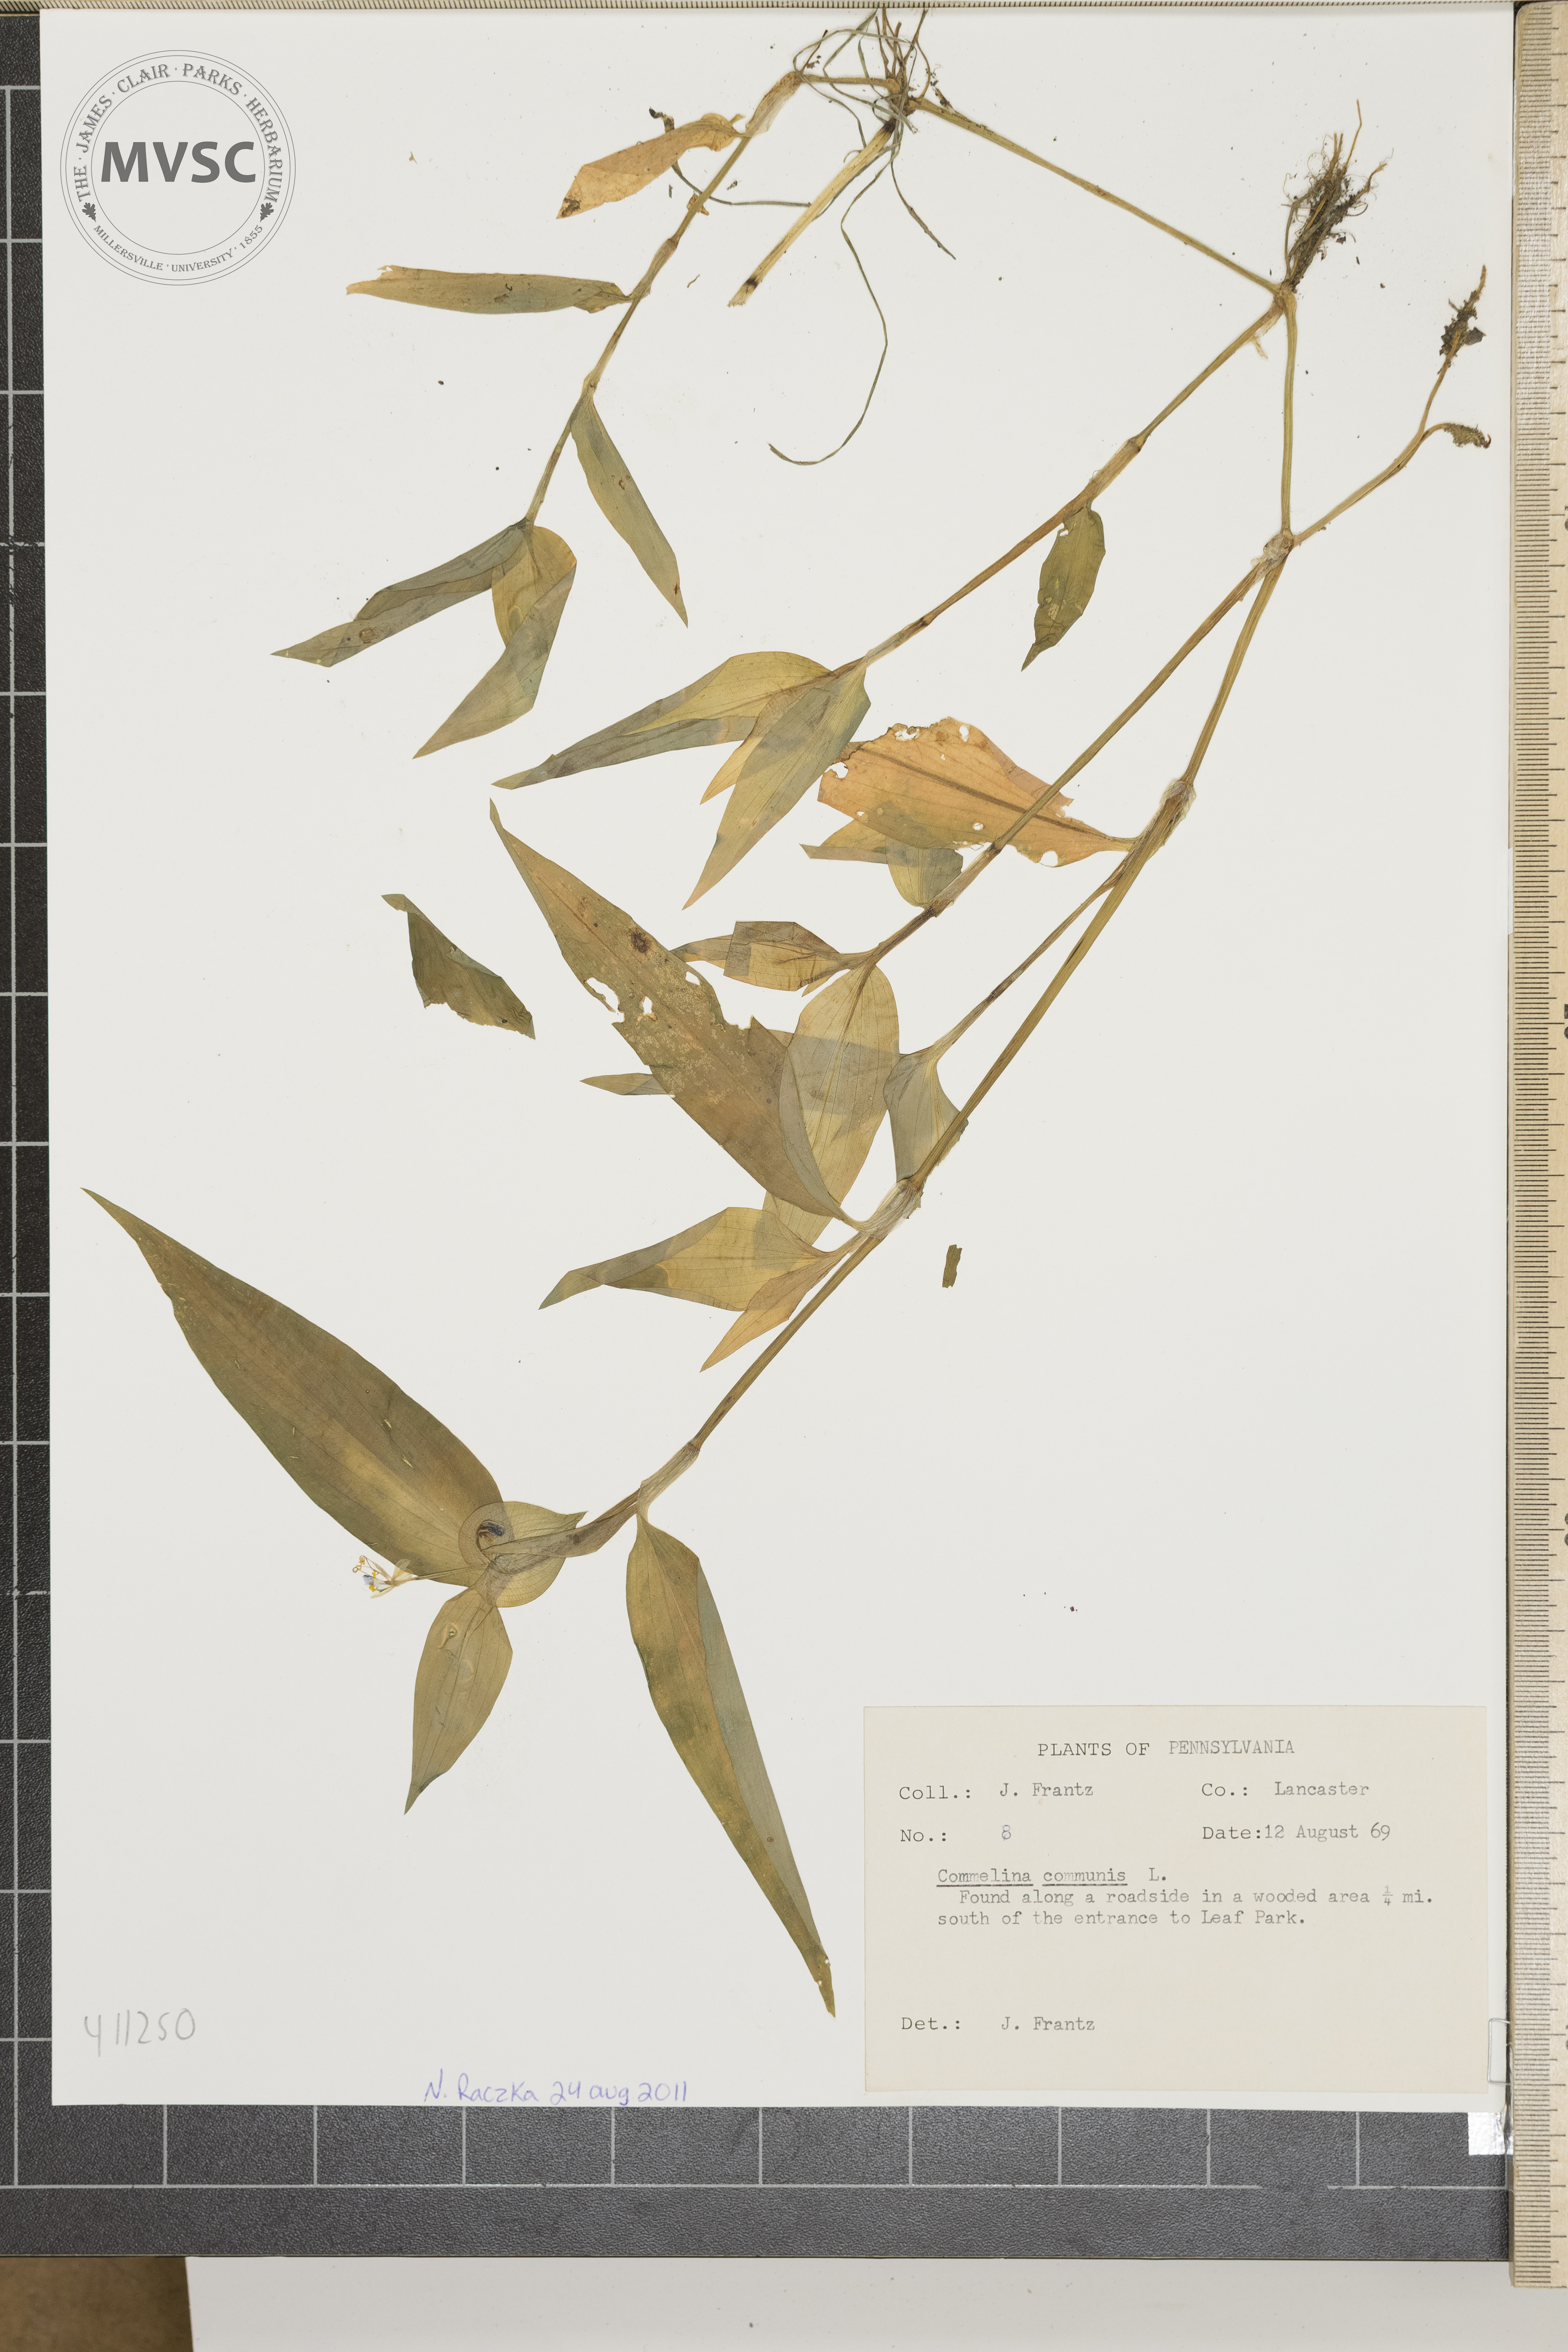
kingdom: Plantae
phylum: Tracheophyta
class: Liliopsida
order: Commelinales
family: Commelinaceae
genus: Commelina
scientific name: Commelina communis
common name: Asiatic dayflower
